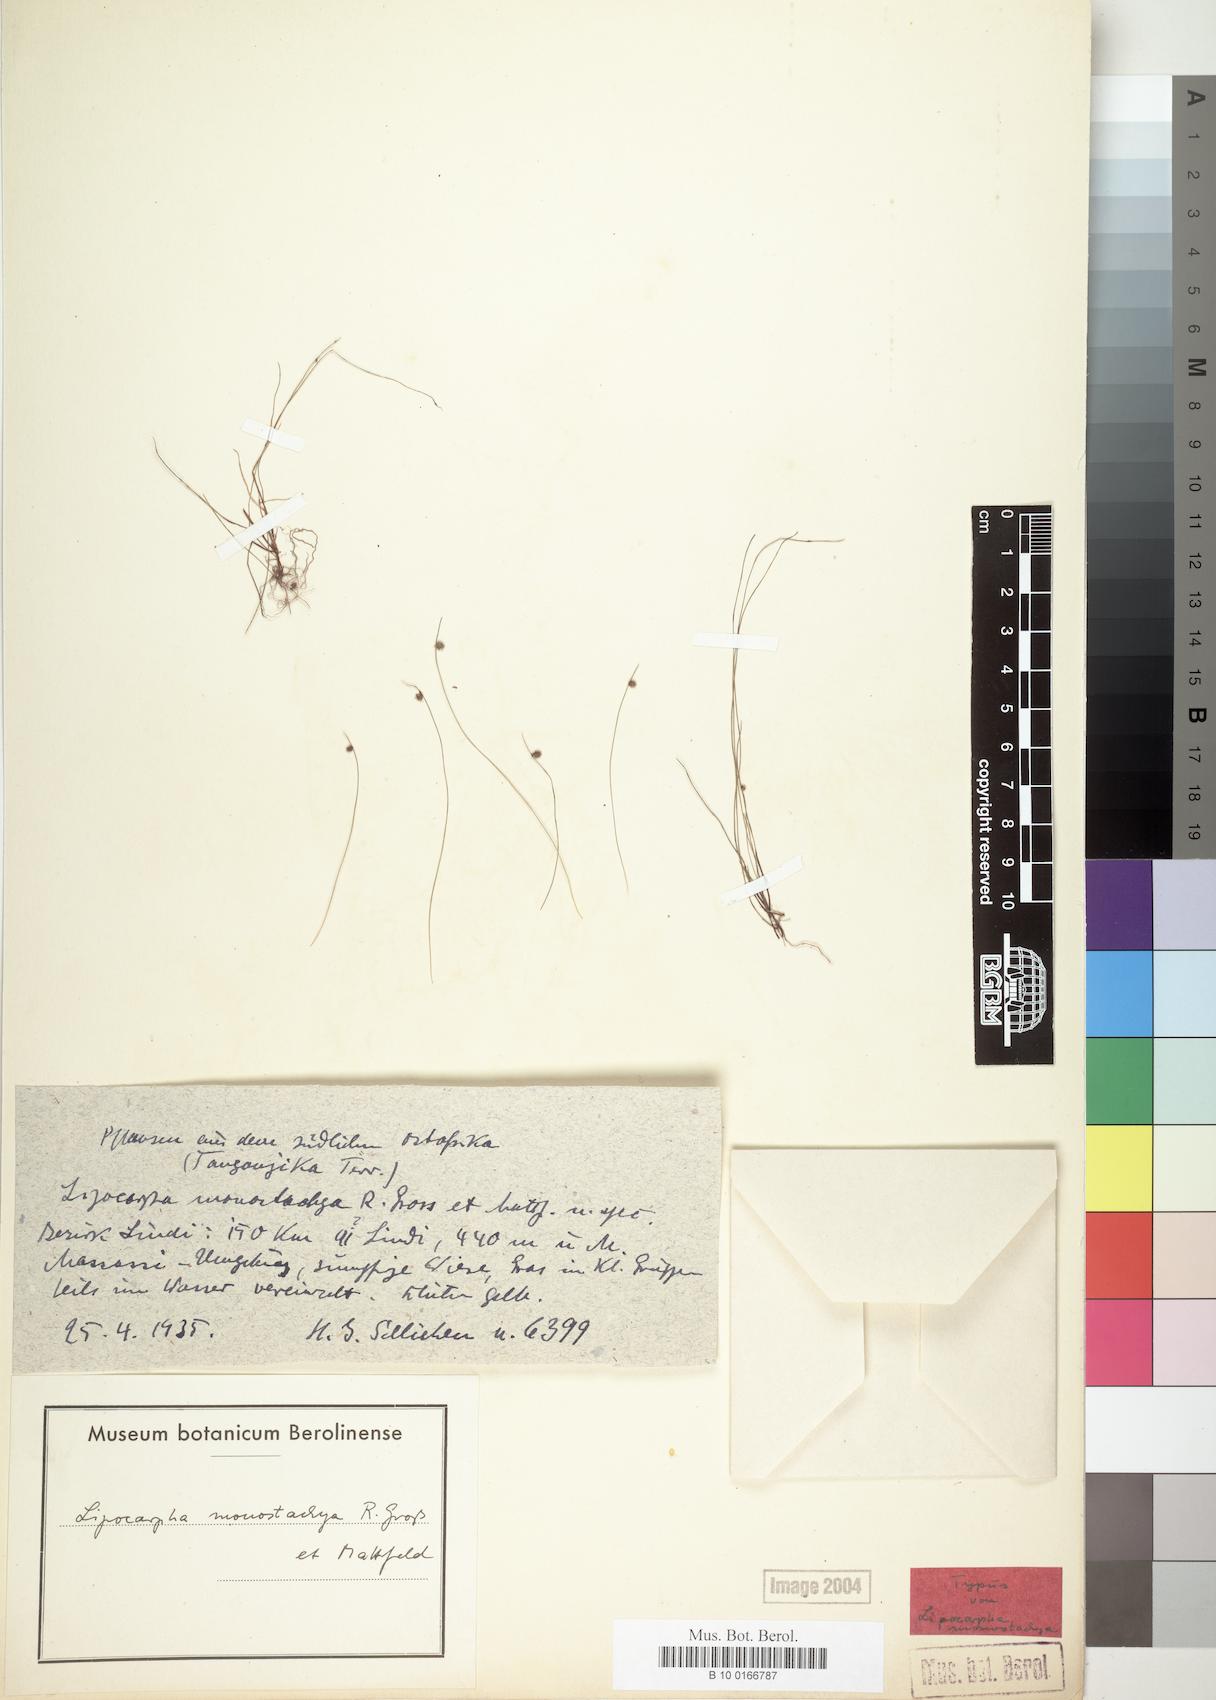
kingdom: Plantae
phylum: Tracheophyta
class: Liliopsida
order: Poales
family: Cyperaceae
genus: Cyperus
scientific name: Cyperus persquarrosus
